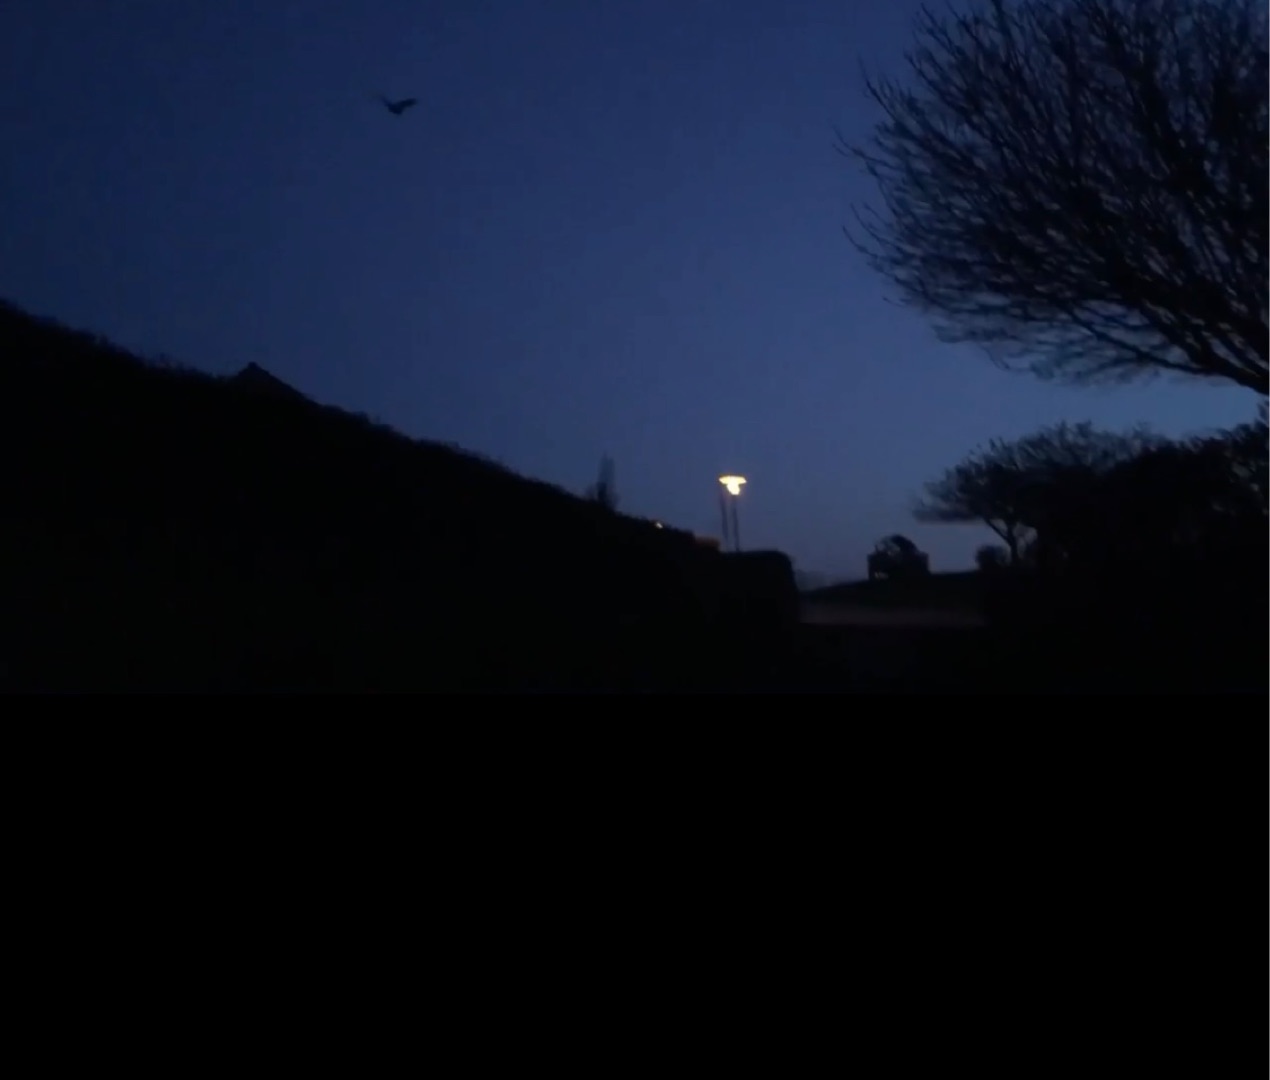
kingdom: Animalia
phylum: Chordata
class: Mammalia
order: Chiroptera
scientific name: Chiroptera
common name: Flagermus
